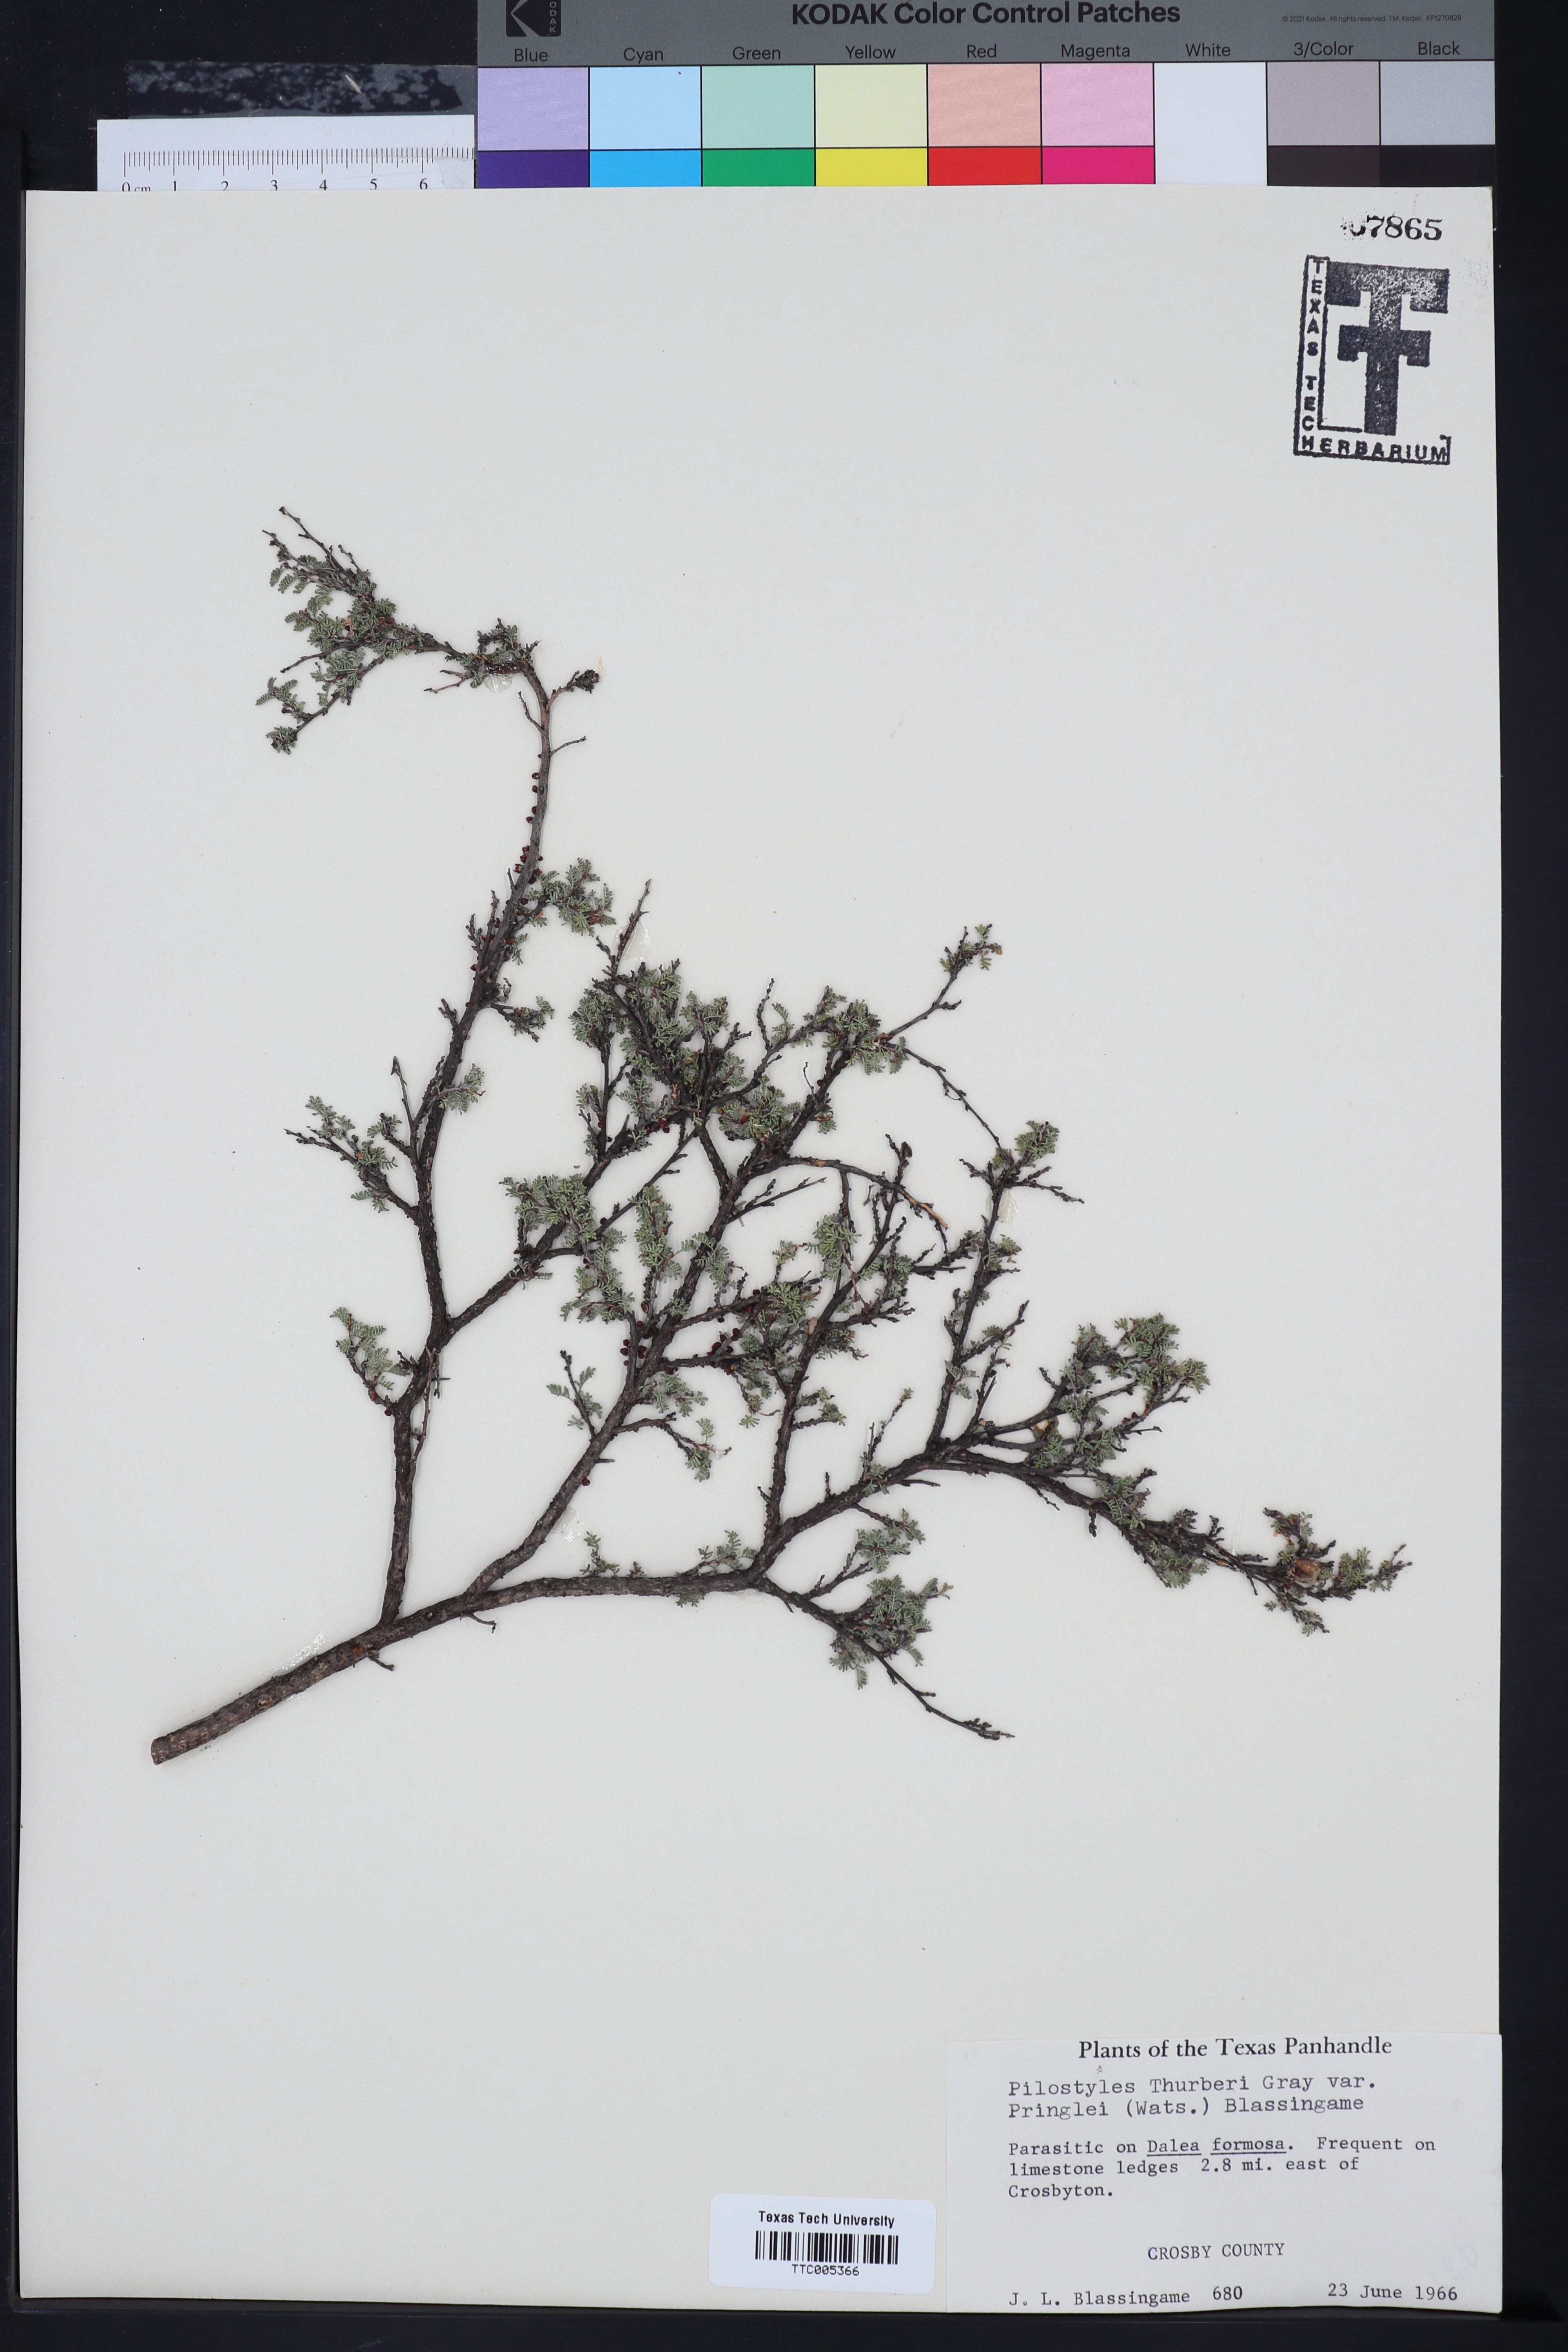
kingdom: Plantae
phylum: Tracheophyta
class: Magnoliopsida
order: Cucurbitales
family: Apodanthaceae
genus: Pilostyles
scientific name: Pilostyles thurberi
